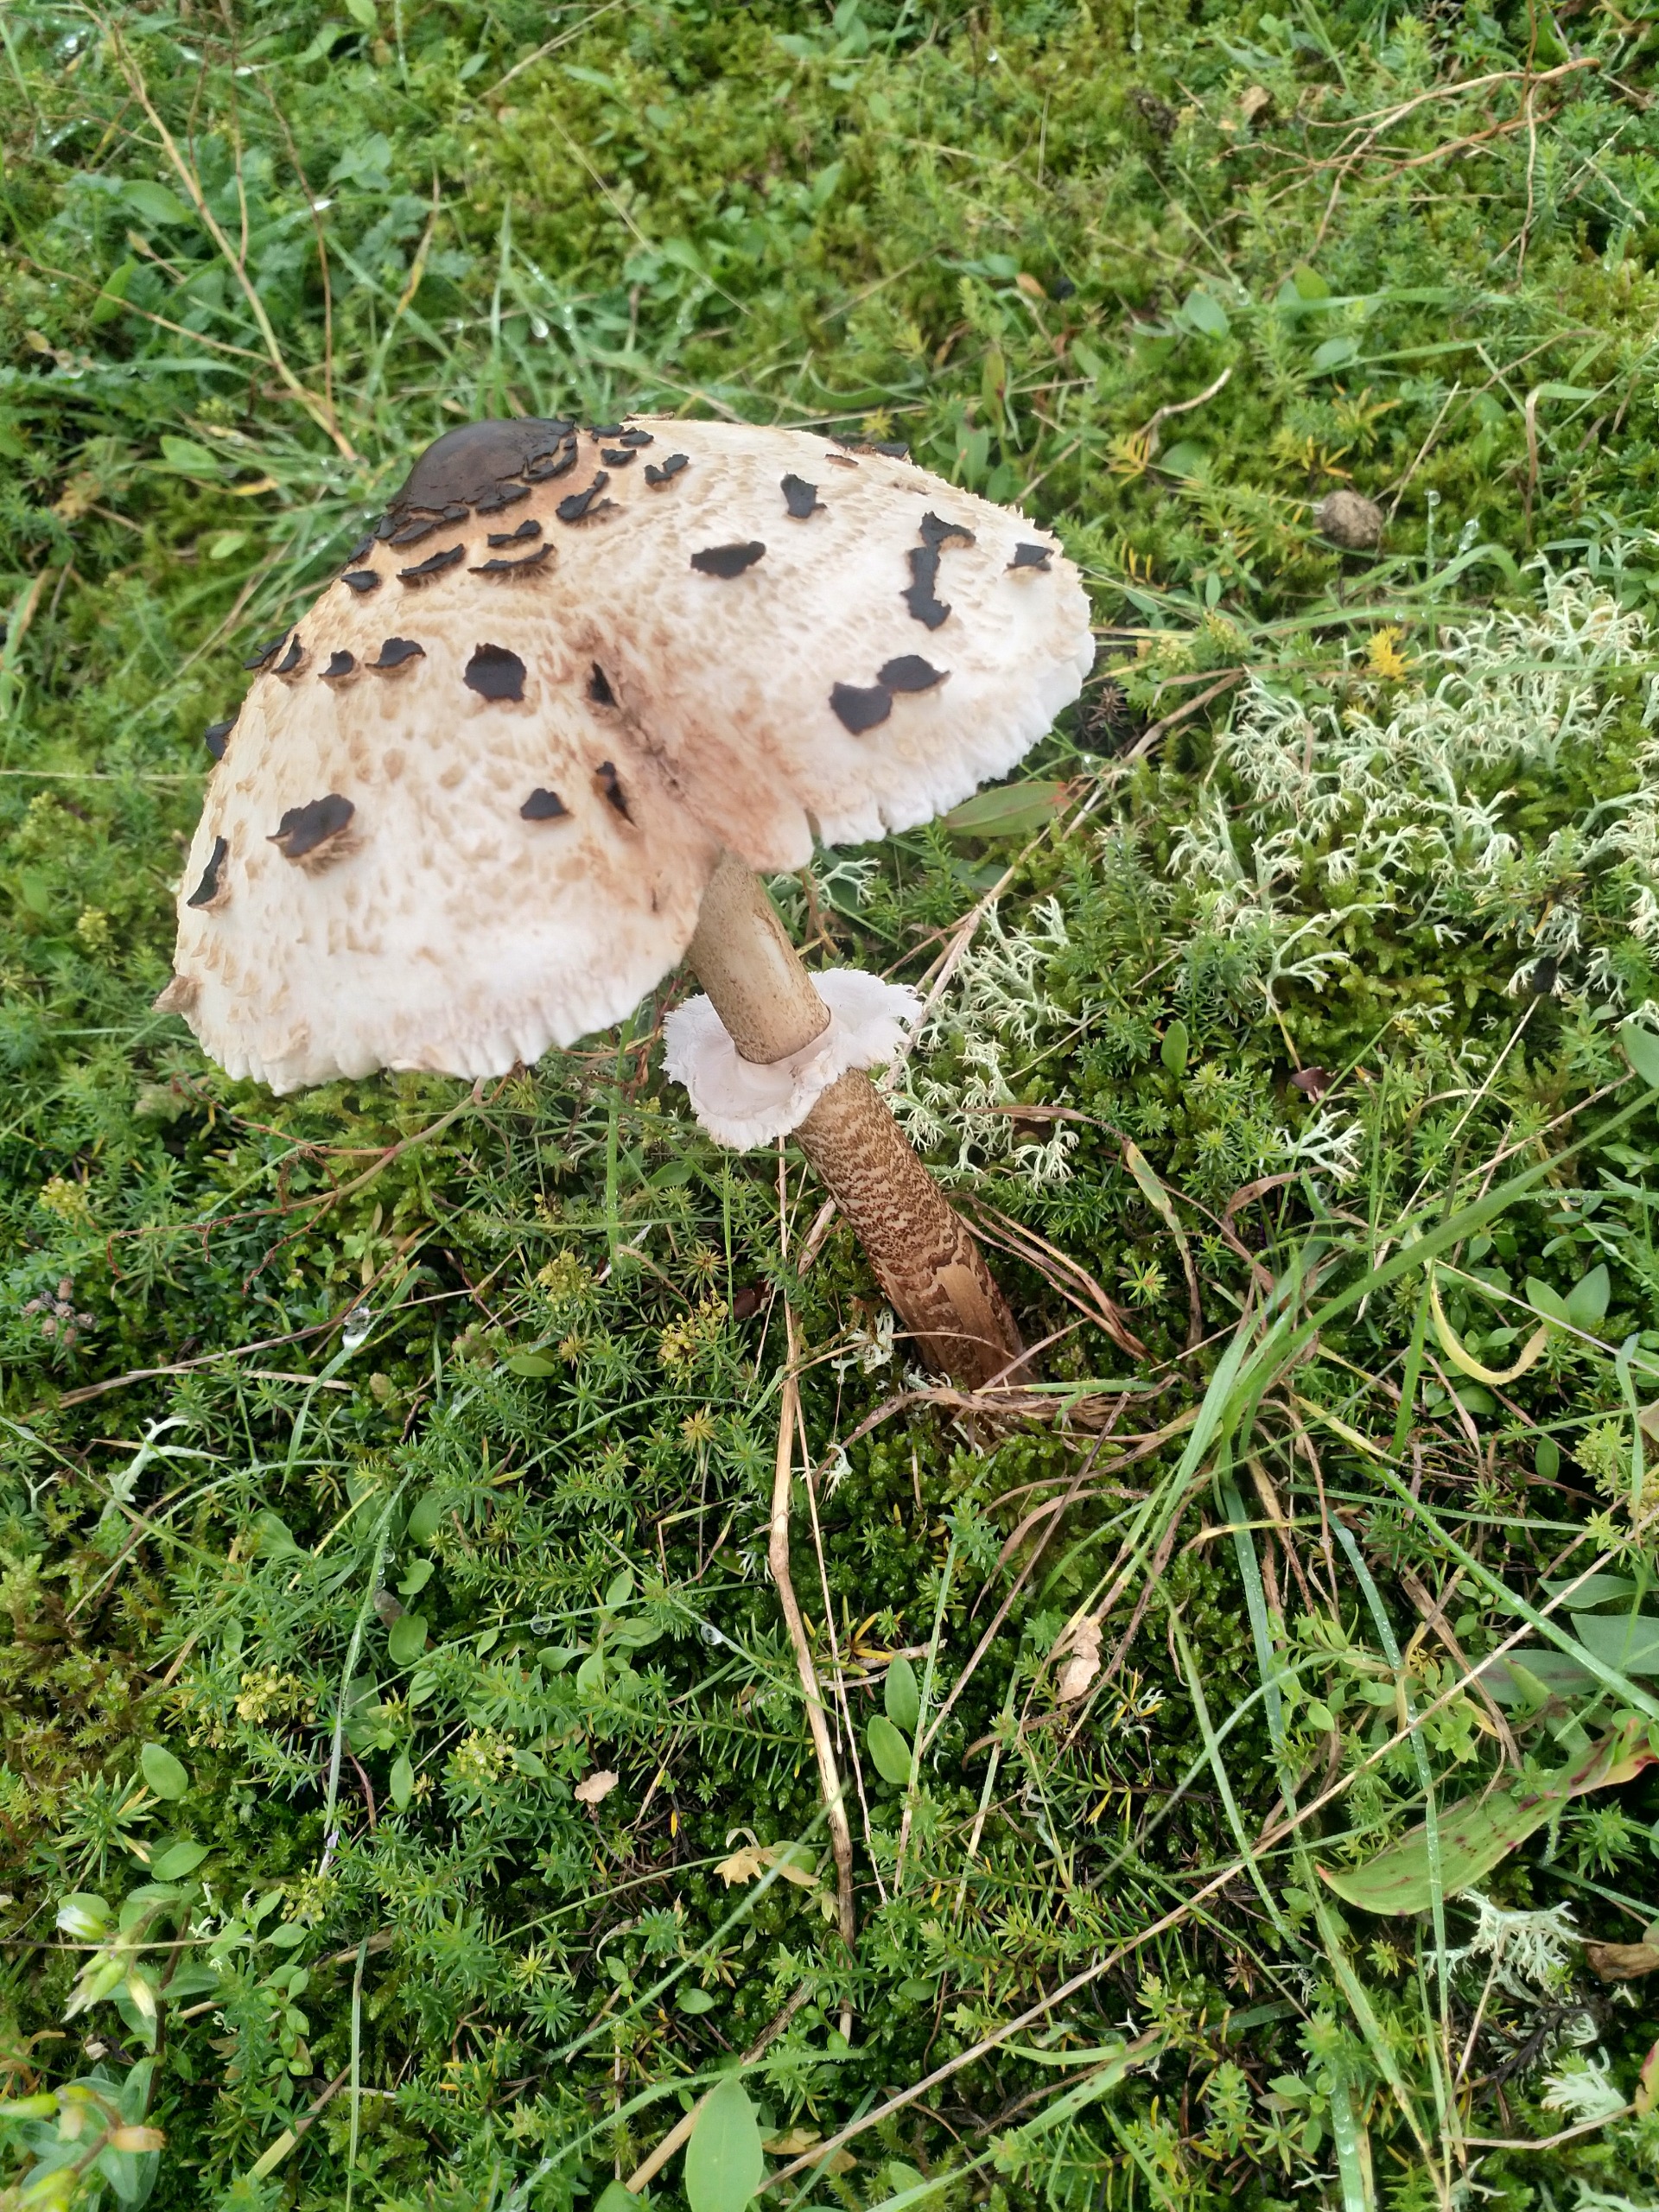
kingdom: Fungi
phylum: Basidiomycota
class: Agaricomycetes
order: Agaricales
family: Agaricaceae
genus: Macrolepiota
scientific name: Macrolepiota procera
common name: Stor kæmpeparasolhat
